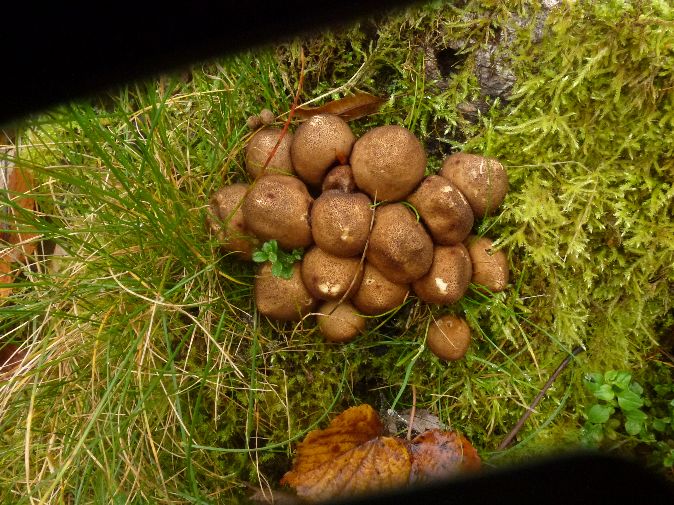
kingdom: Fungi
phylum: Basidiomycota
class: Agaricomycetes
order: Agaricales
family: Lycoperdaceae
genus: Apioperdon
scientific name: Apioperdon pyriforme
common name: pære-støvbold
